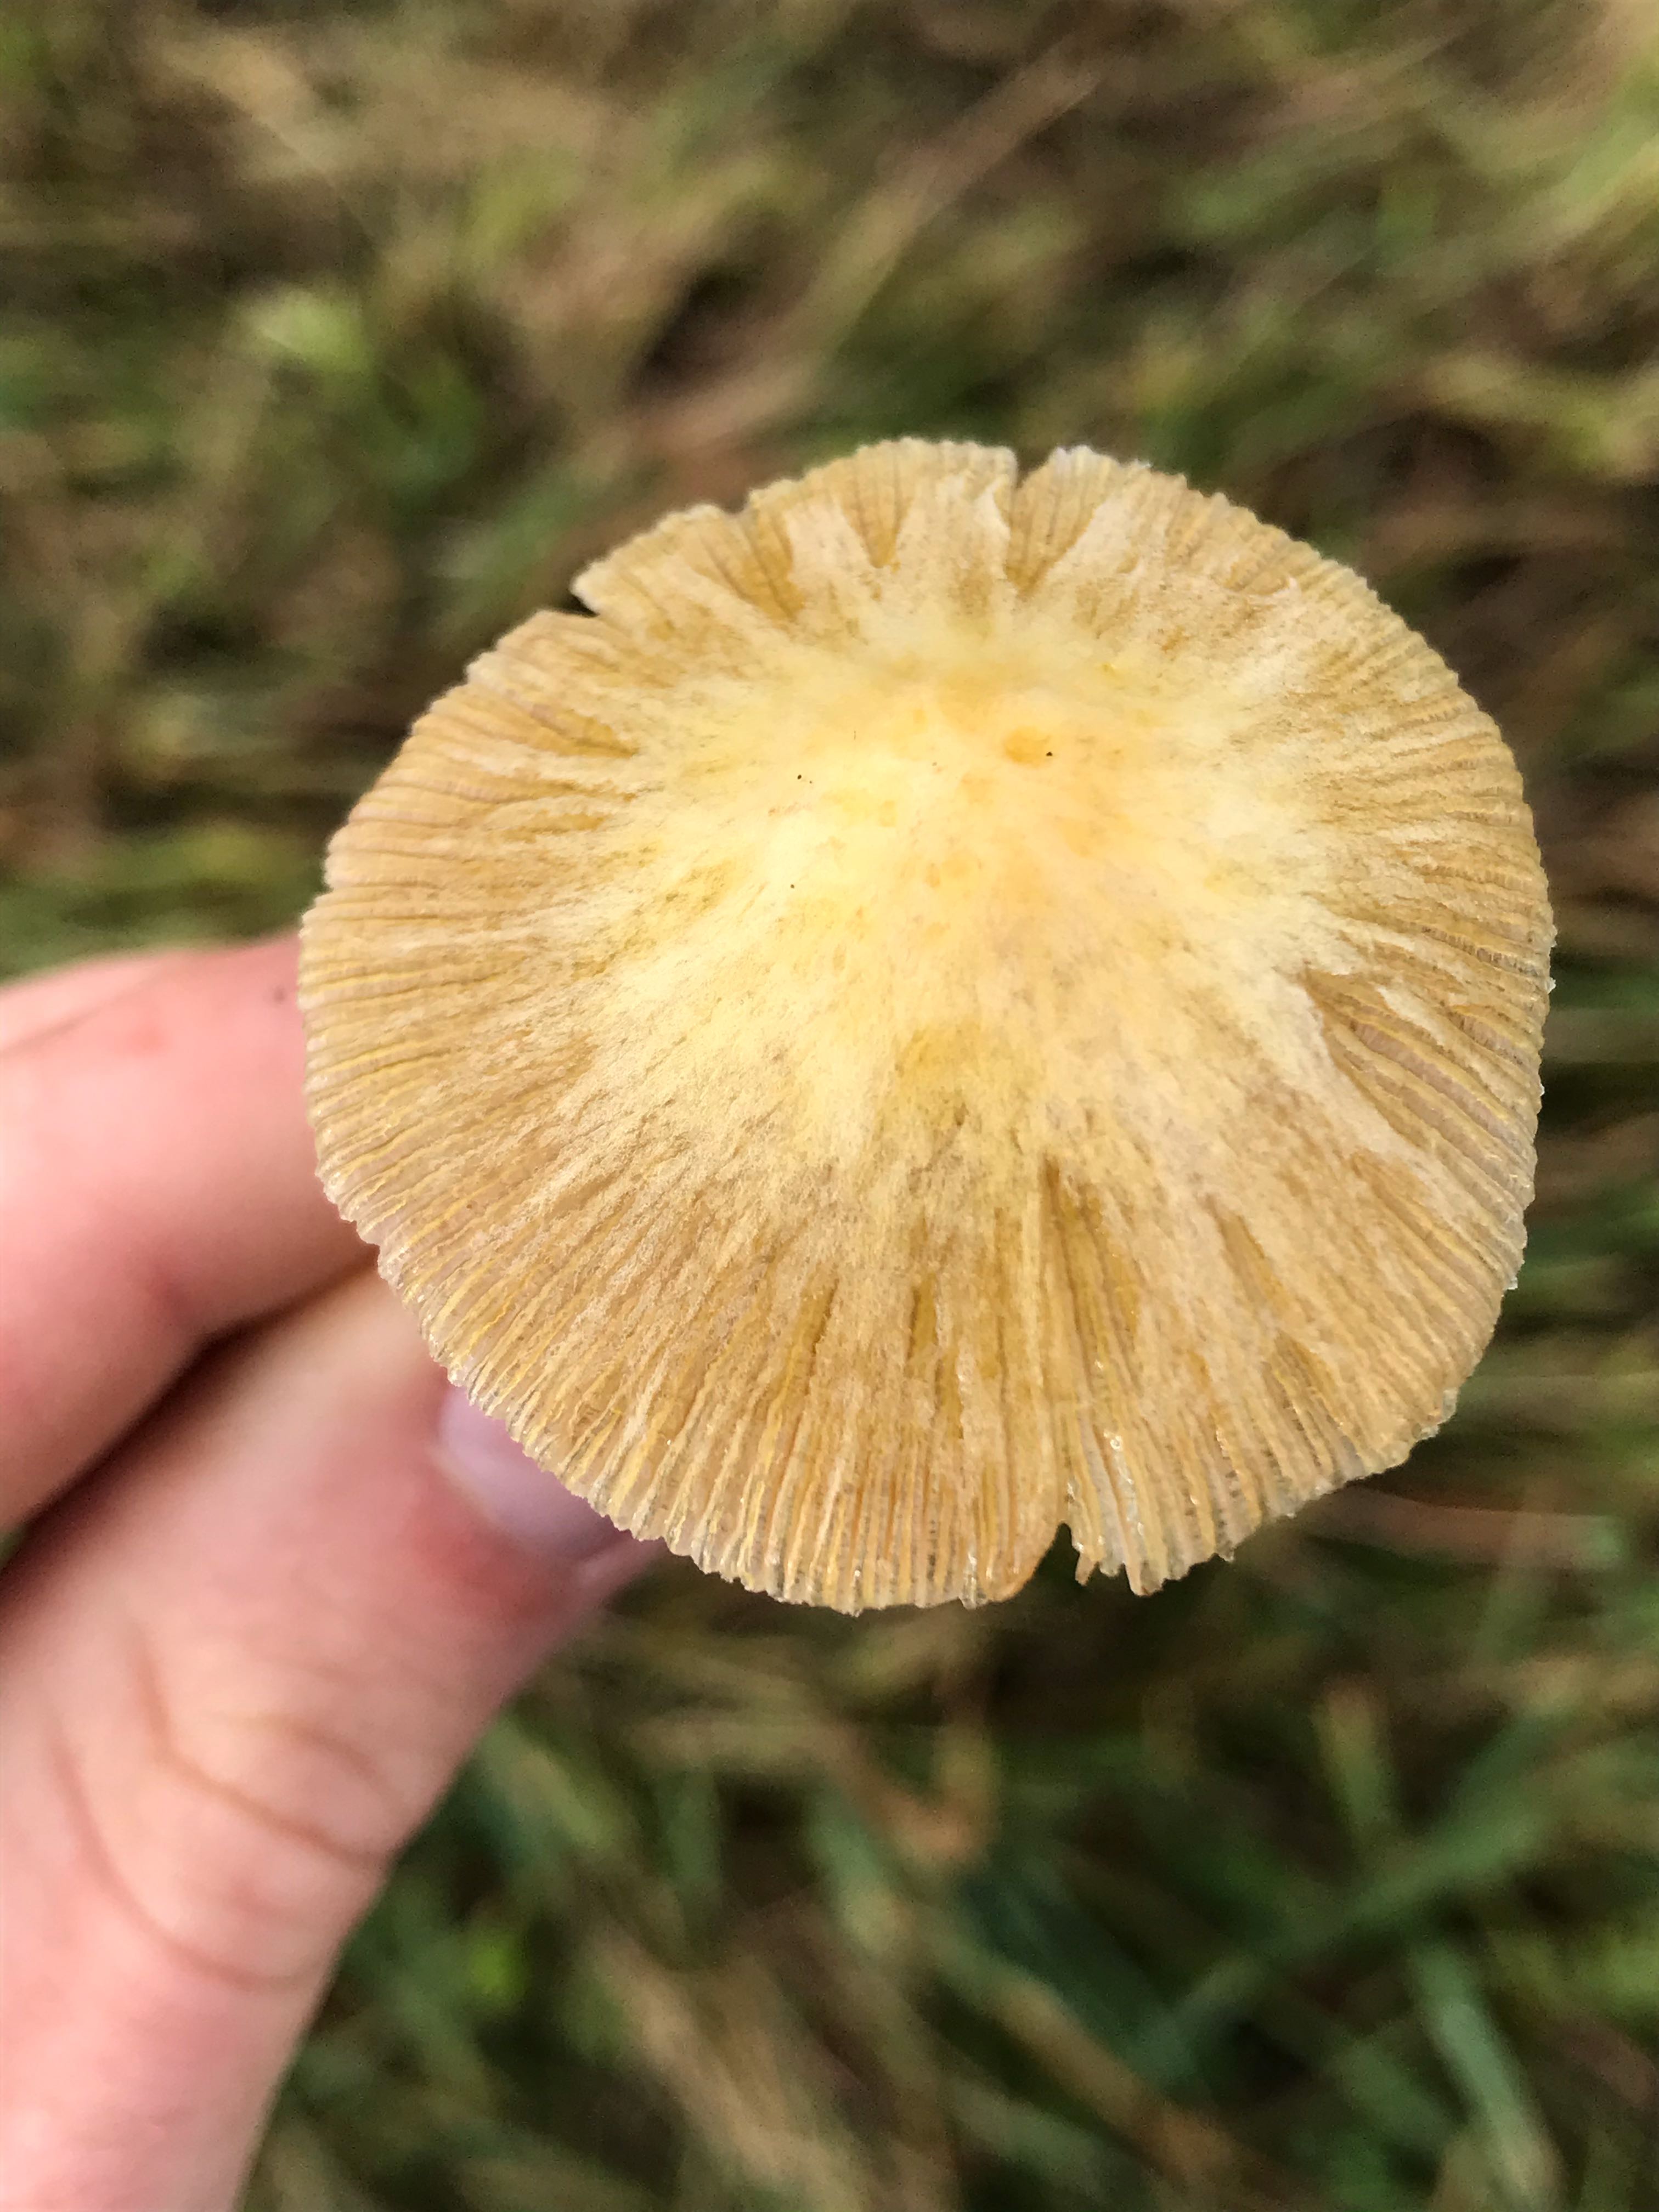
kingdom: Fungi
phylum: Basidiomycota
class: Agaricomycetes
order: Agaricales
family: Bolbitiaceae
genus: Bolbitius
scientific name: Bolbitius titubans
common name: almindelig gulhat
